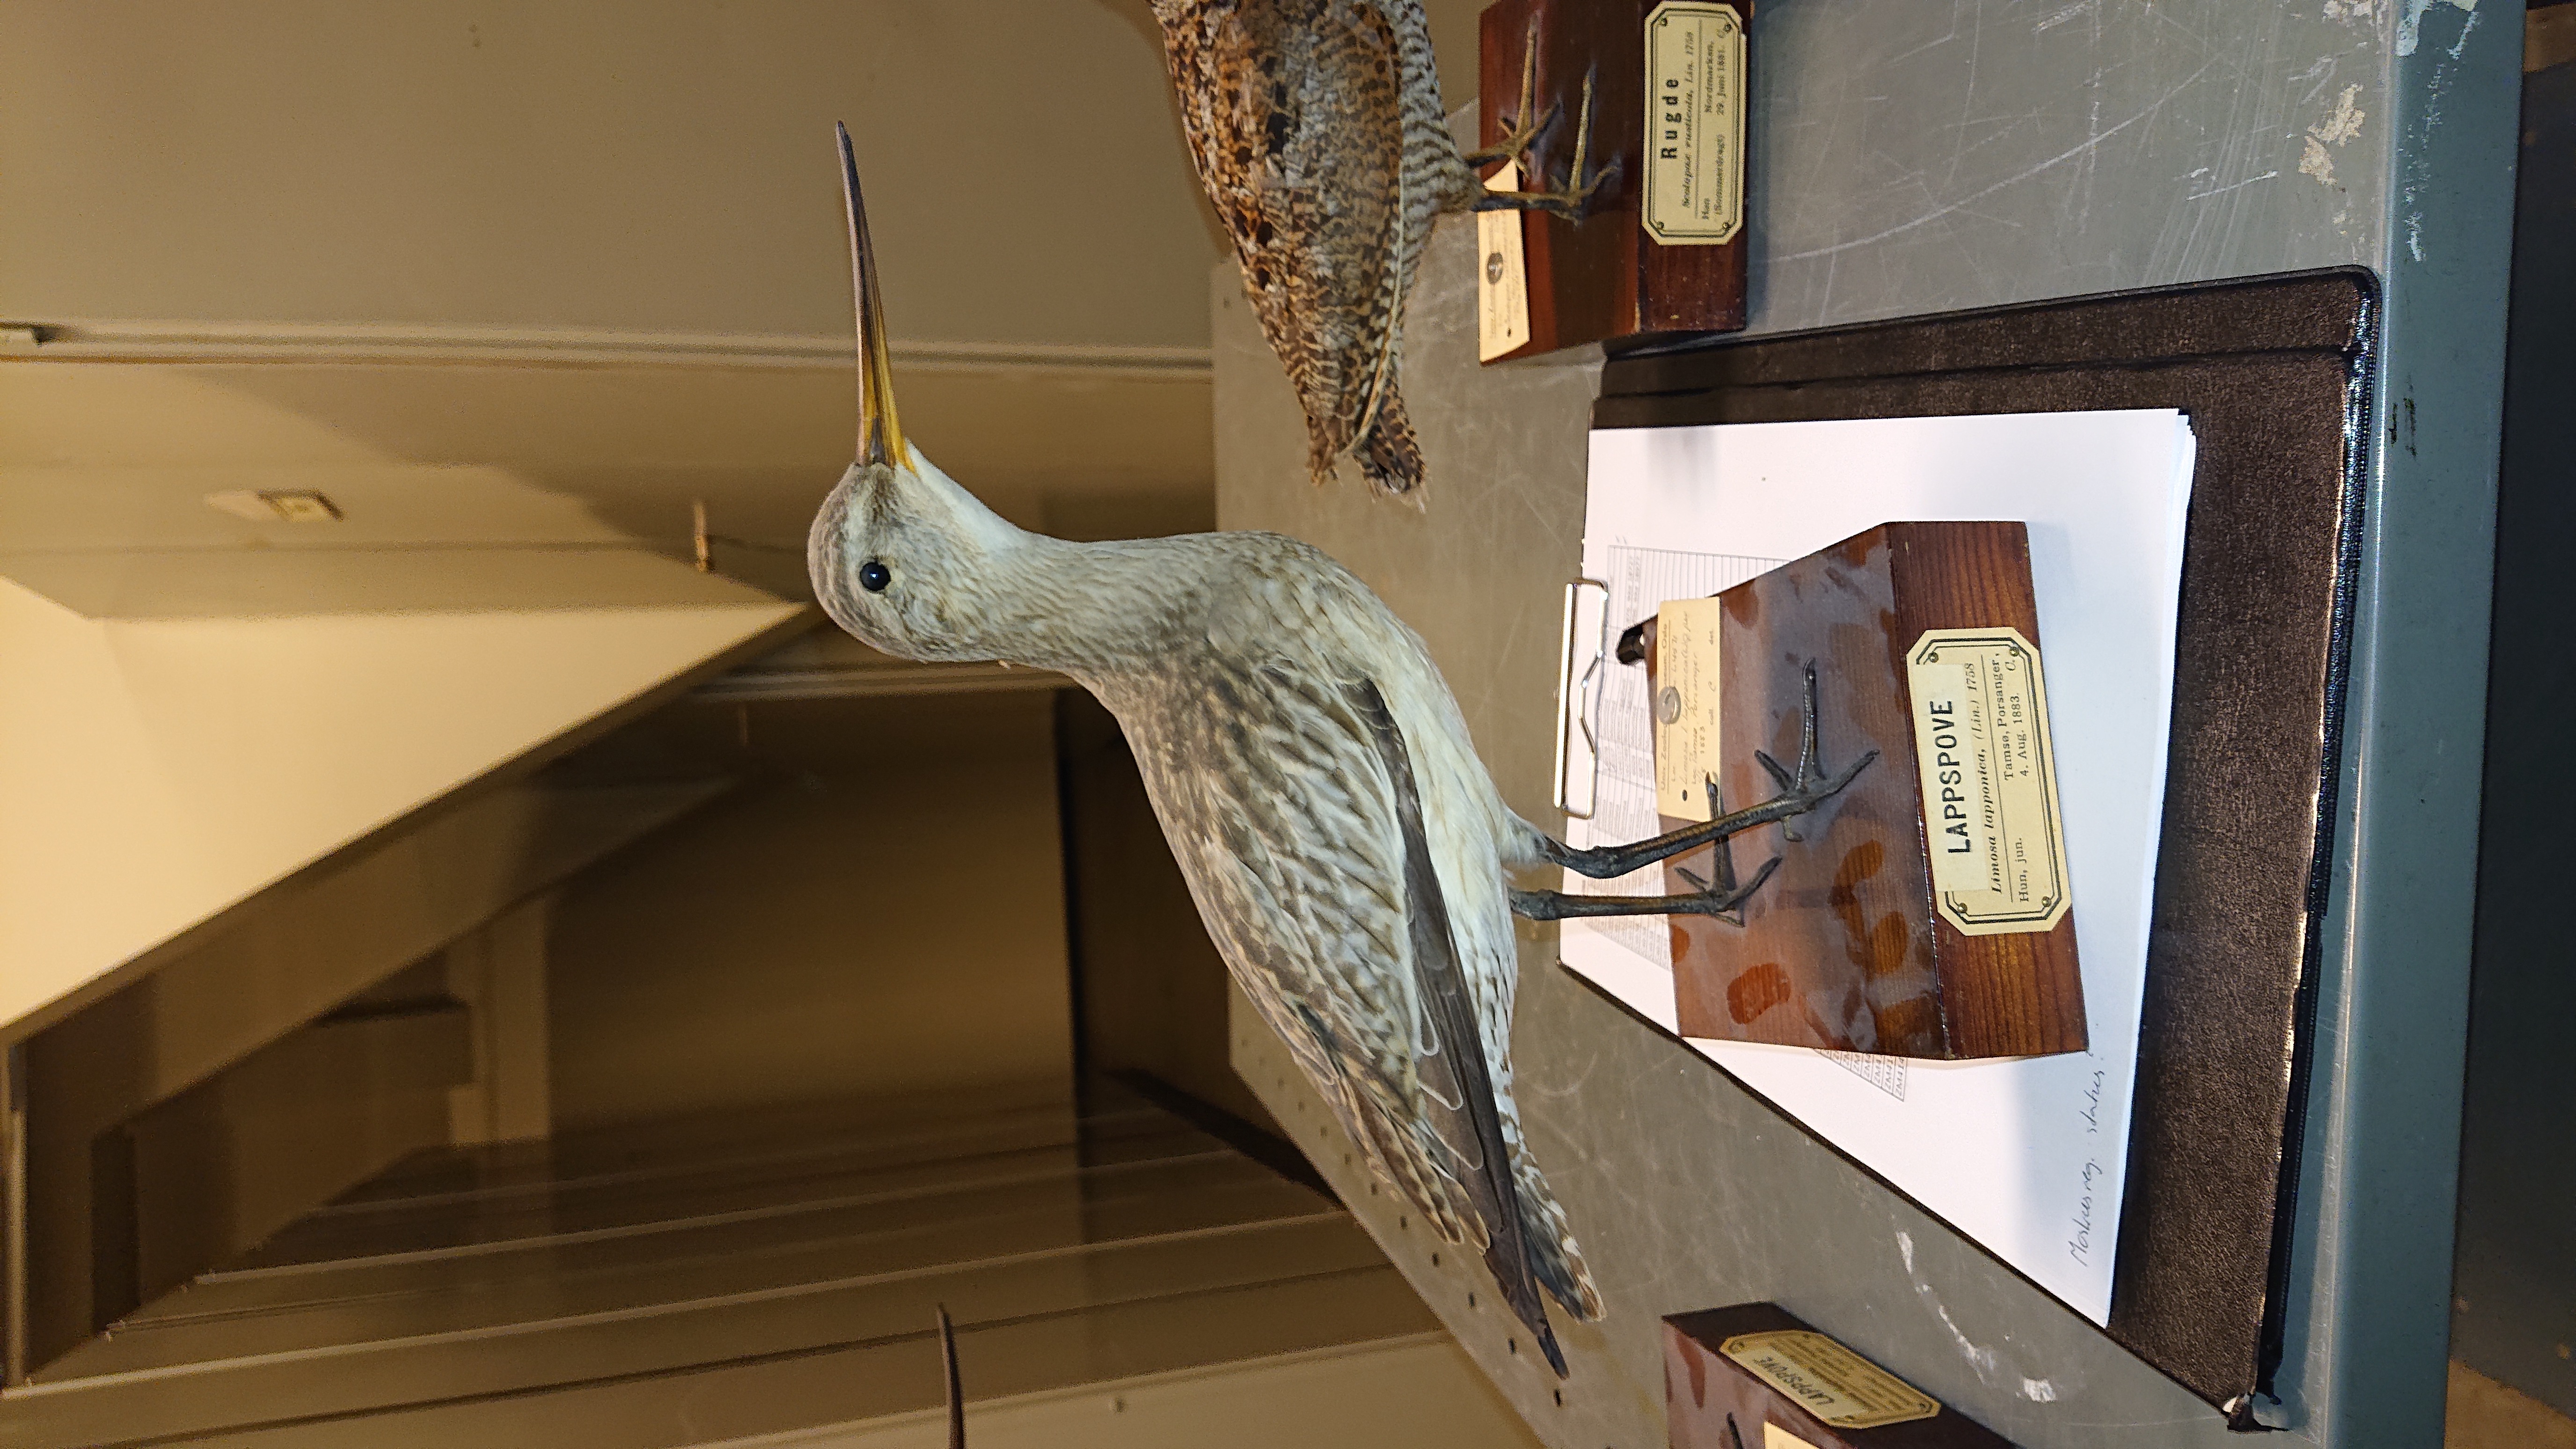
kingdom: Animalia
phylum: Chordata
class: Aves
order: Charadriiformes
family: Scolopacidae
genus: Limosa
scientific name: Limosa lapponica
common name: Bar-tailed godwit
